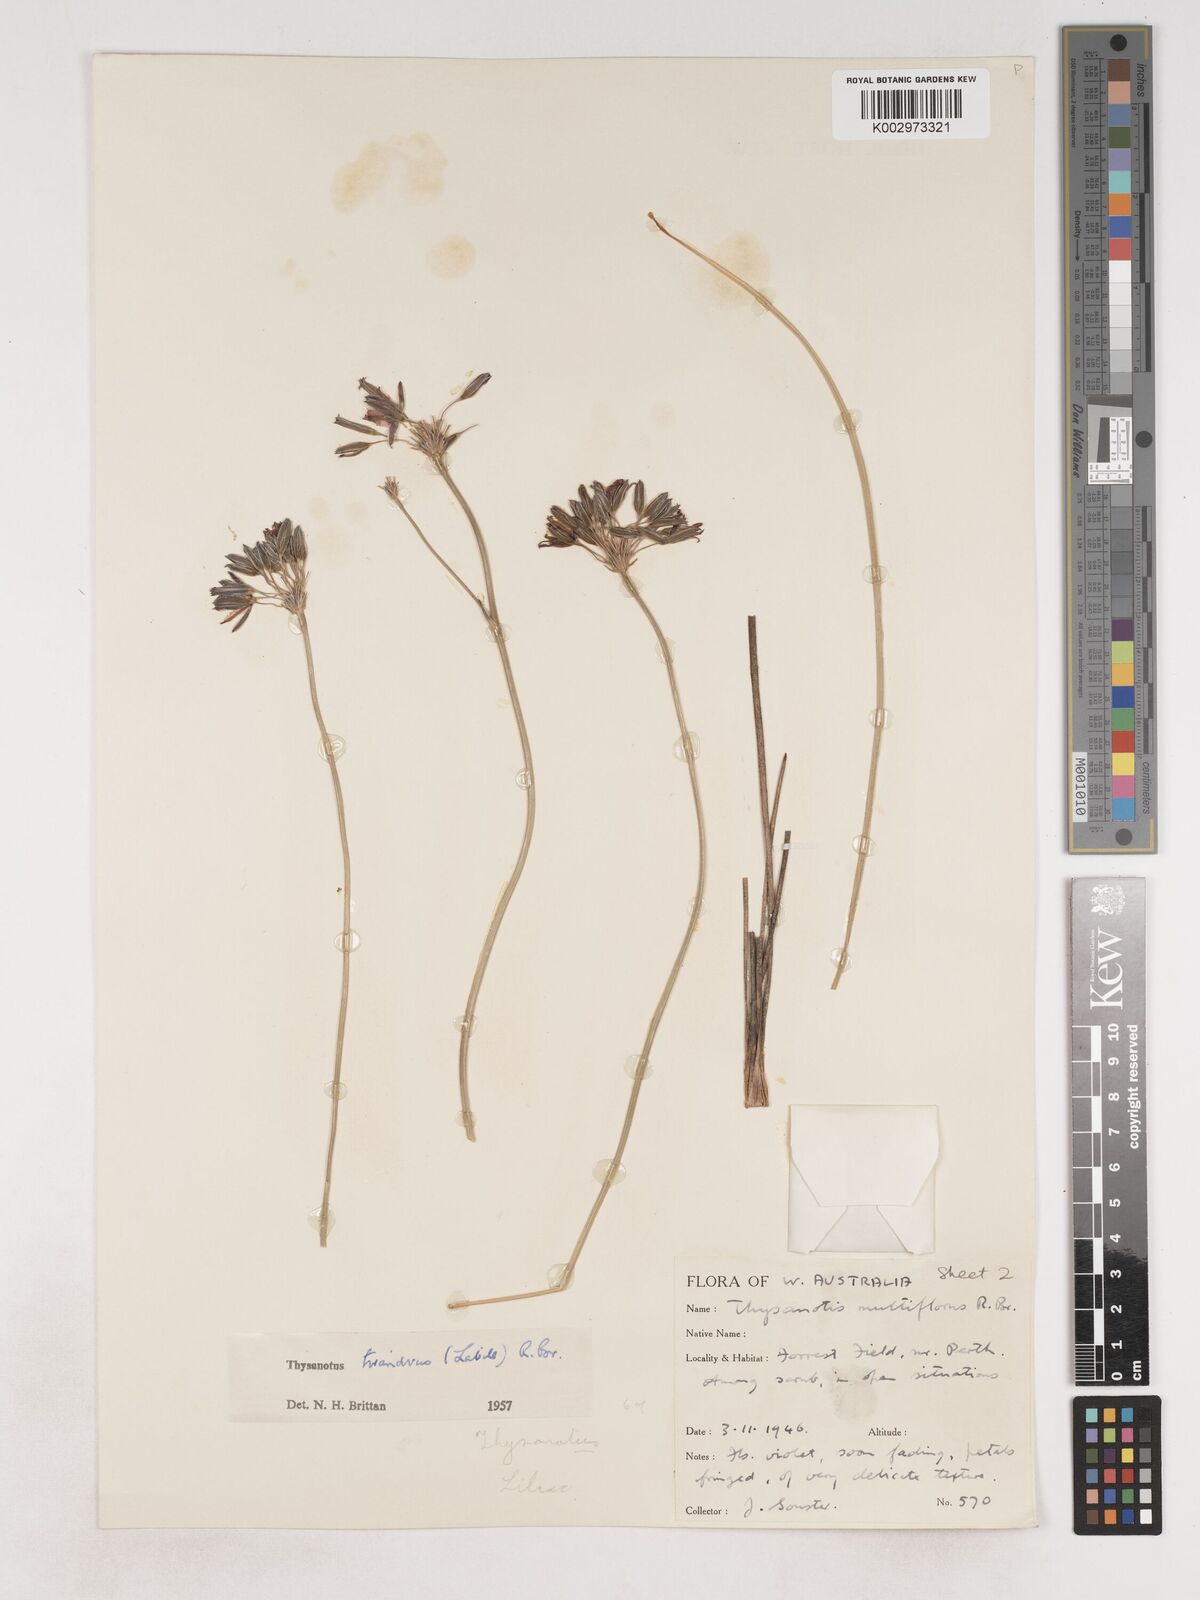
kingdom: Plantae
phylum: Tracheophyta
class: Liliopsida
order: Asparagales
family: Asparagaceae
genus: Thysanotus
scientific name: Thysanotus triandrus
